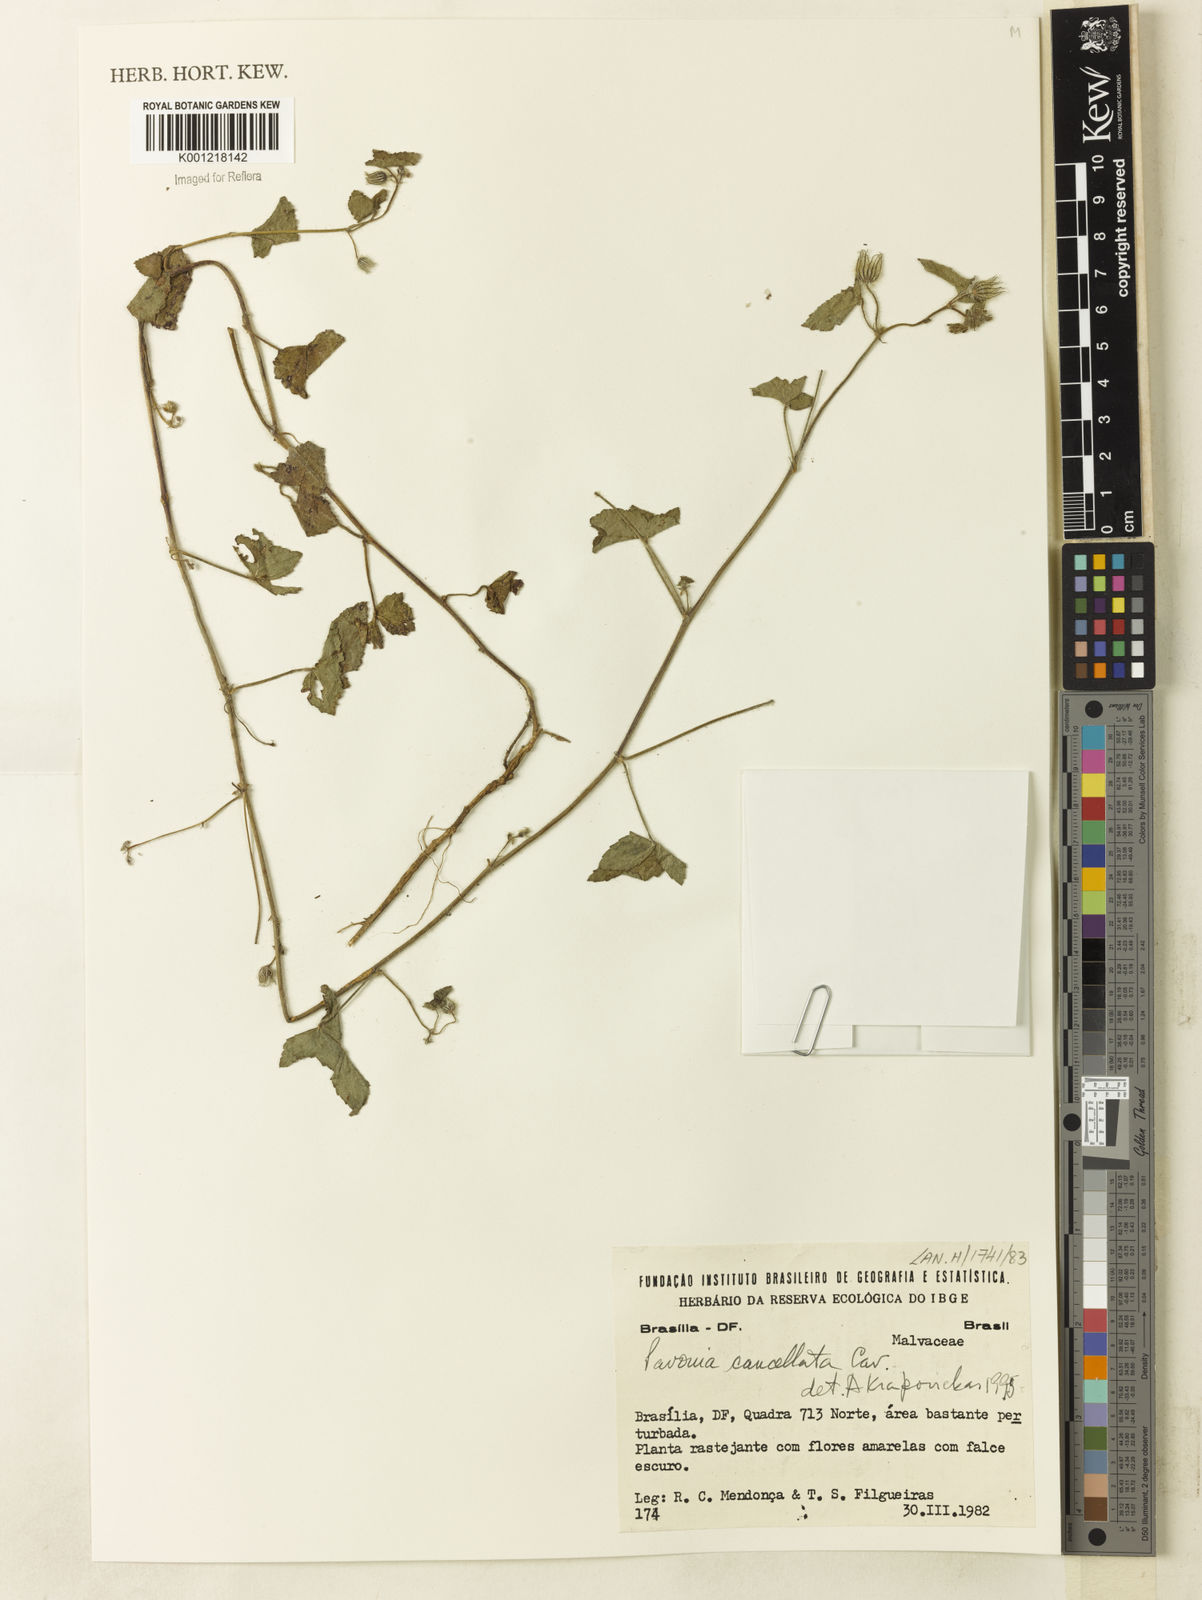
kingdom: Plantae
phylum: Tracheophyta
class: Magnoliopsida
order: Malvales
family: Malvaceae
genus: Pavonia
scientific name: Pavonia cancellata
